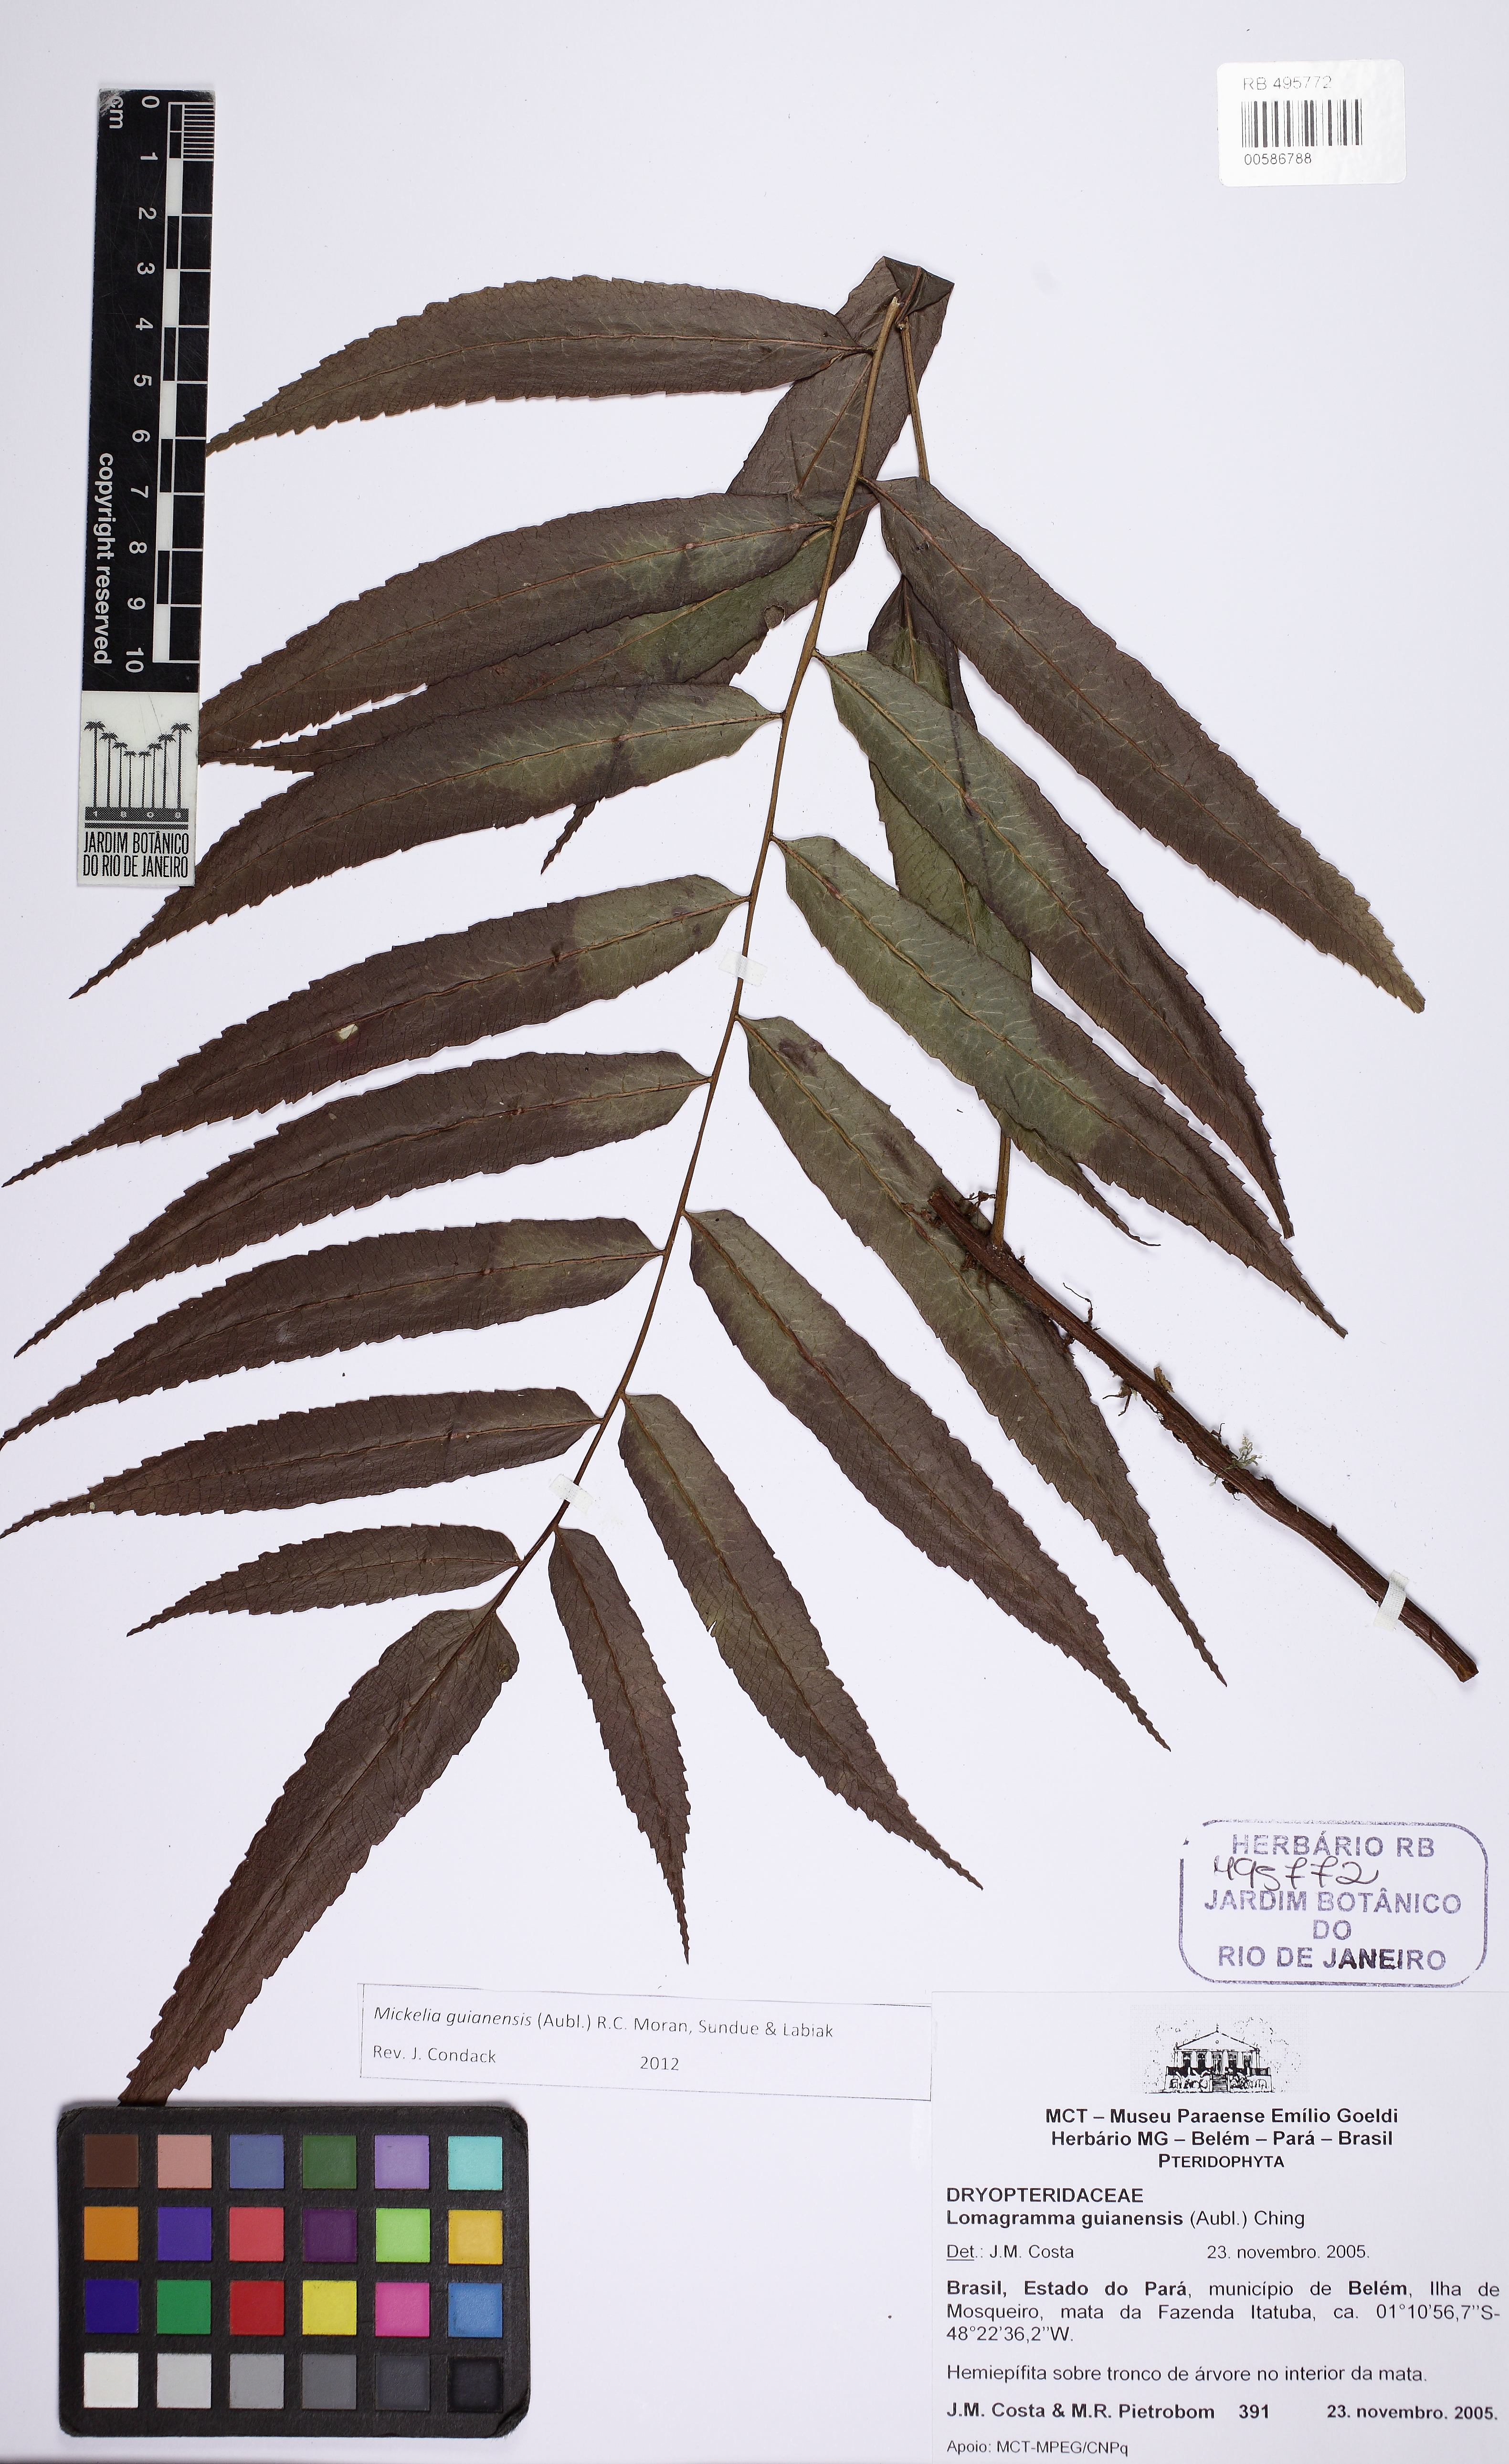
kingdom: Plantae
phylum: Tracheophyta
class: Polypodiopsida
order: Polypodiales
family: Dryopteridaceae
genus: Mickelia
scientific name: Mickelia guianensis
